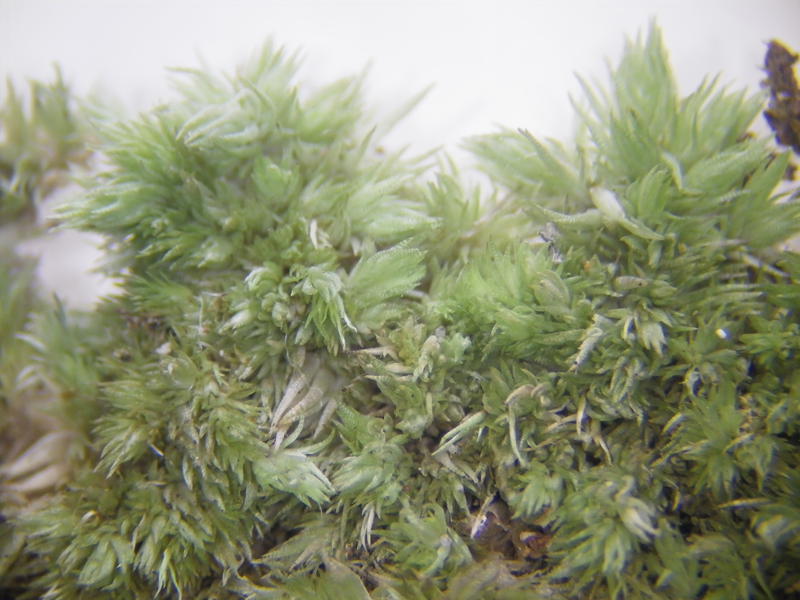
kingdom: Plantae
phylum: Bryophyta
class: Bryopsida
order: Dicranales
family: Leucobryaceae
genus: Leucobryum
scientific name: Leucobryum
